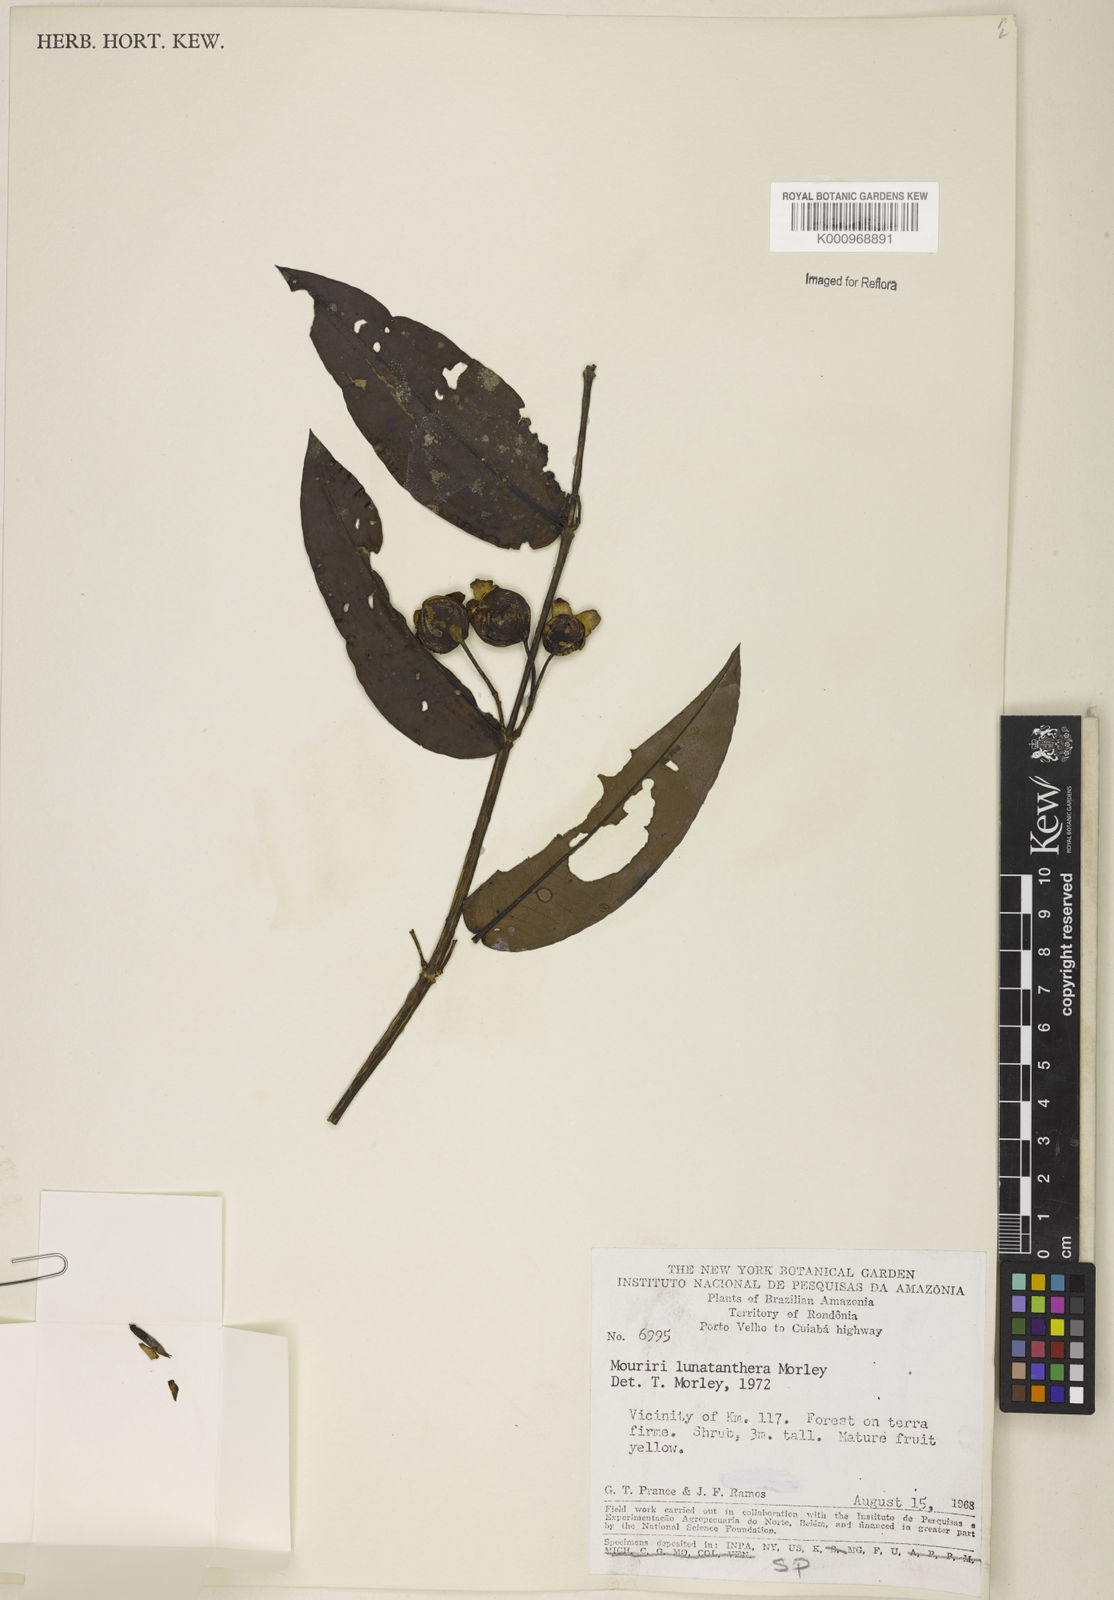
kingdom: Plantae
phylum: Tracheophyta
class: Magnoliopsida
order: Myrtales
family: Melastomataceae
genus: Mouriri
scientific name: Mouriri
